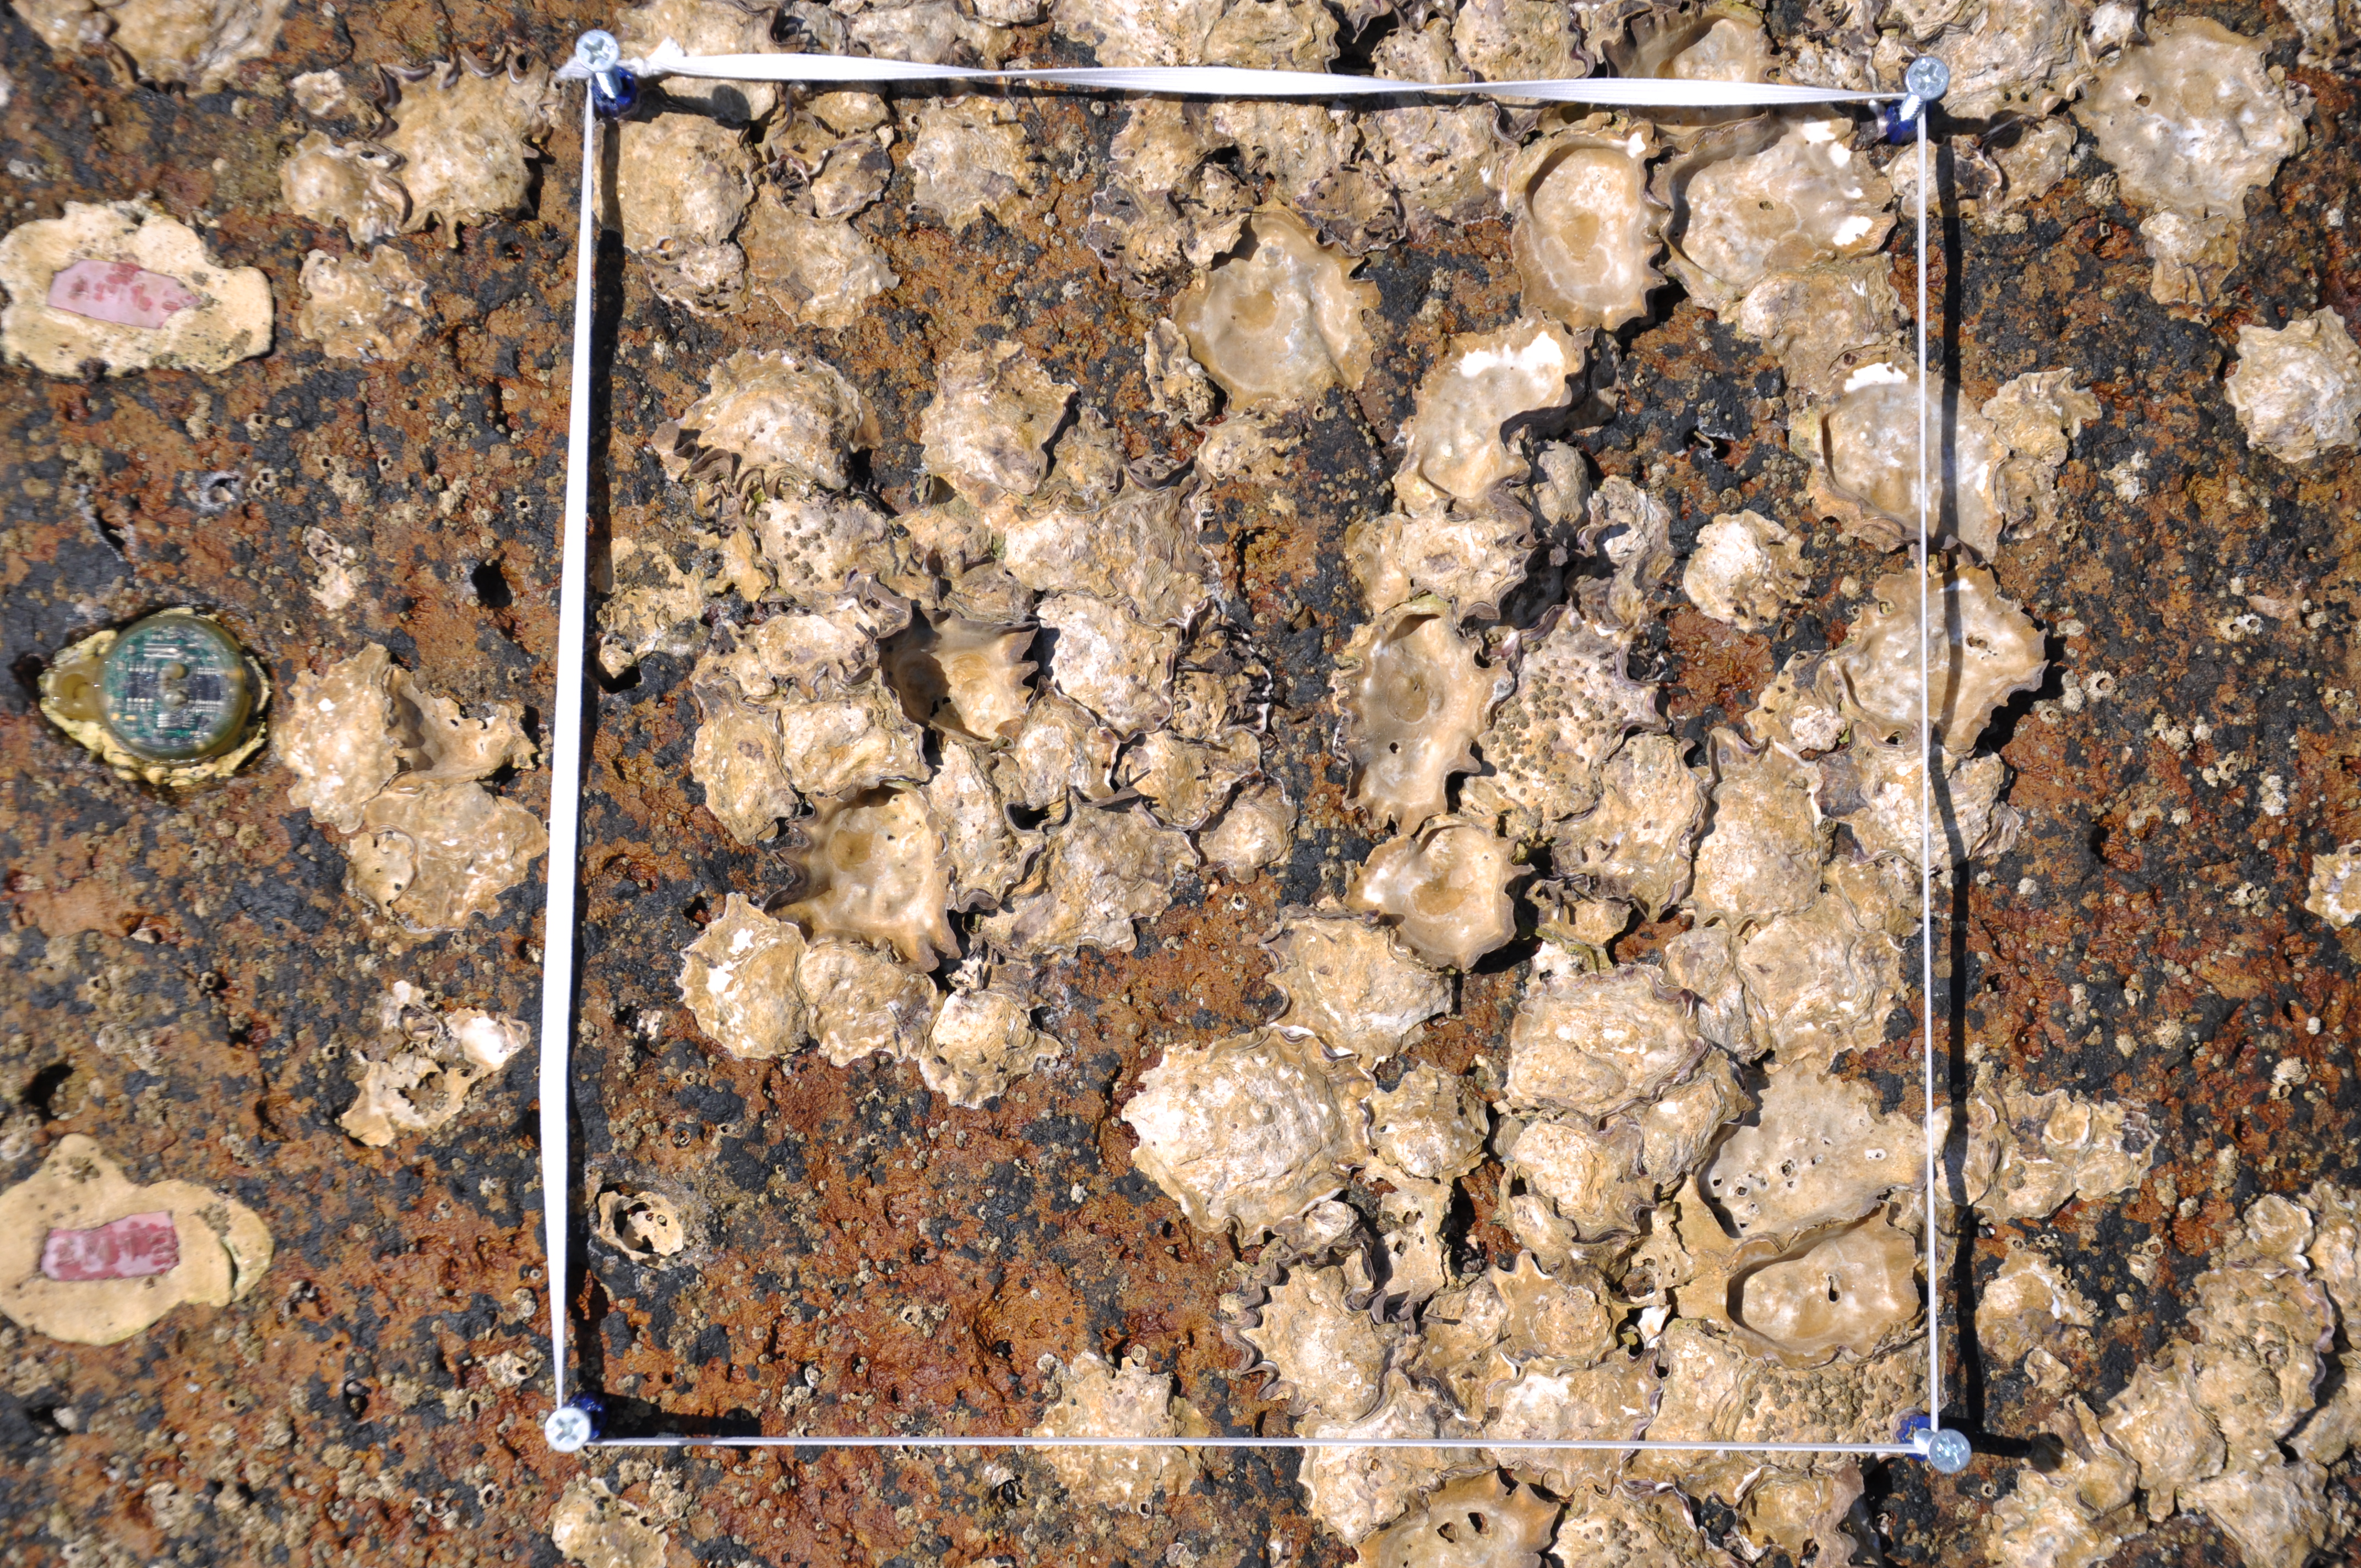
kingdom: Animalia
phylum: Arthropoda
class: Maxillopoda
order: Sessilia
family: Chthamalidae
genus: Chthamalus
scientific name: Chthamalus challengeri
